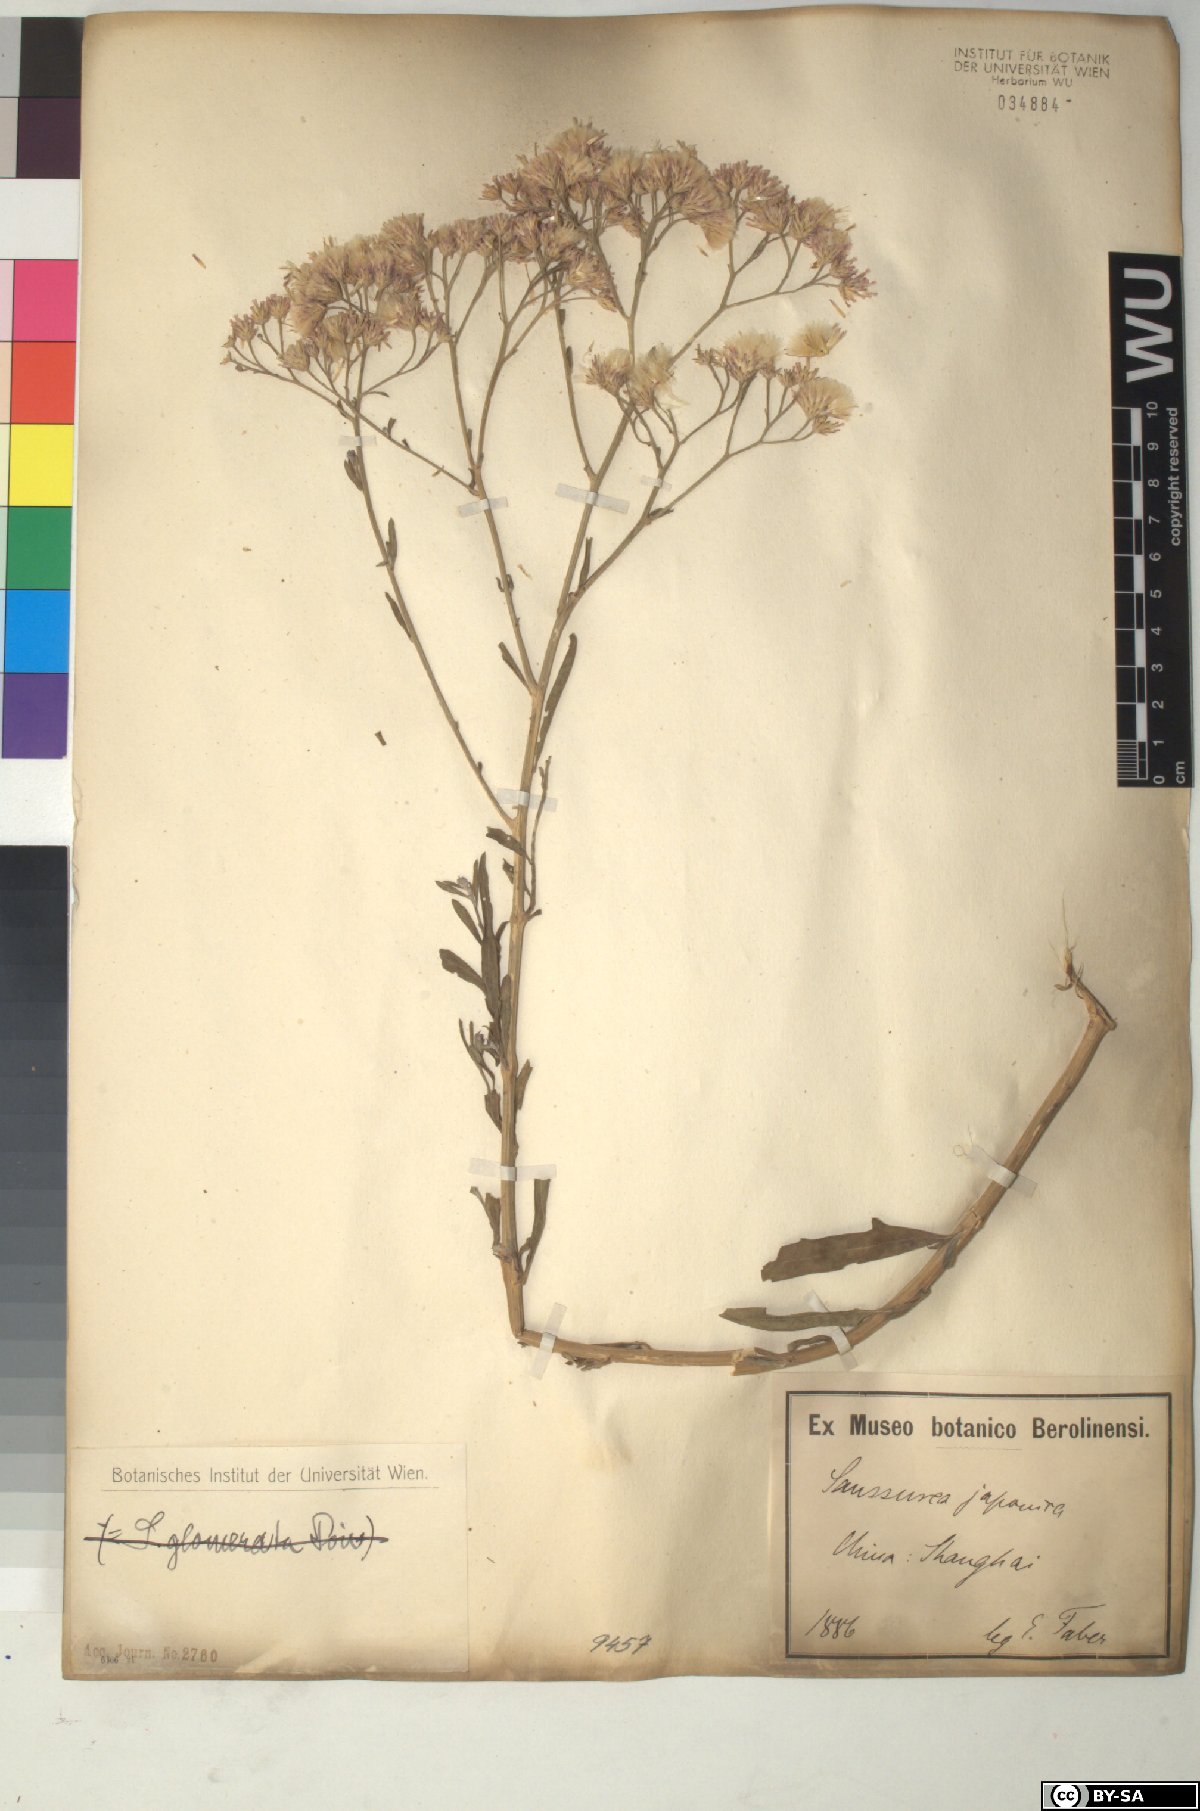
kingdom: Plantae
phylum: Tracheophyta
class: Magnoliopsida
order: Asterales
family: Asteraceae
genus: Saussurea
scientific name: Saussurea japonica
